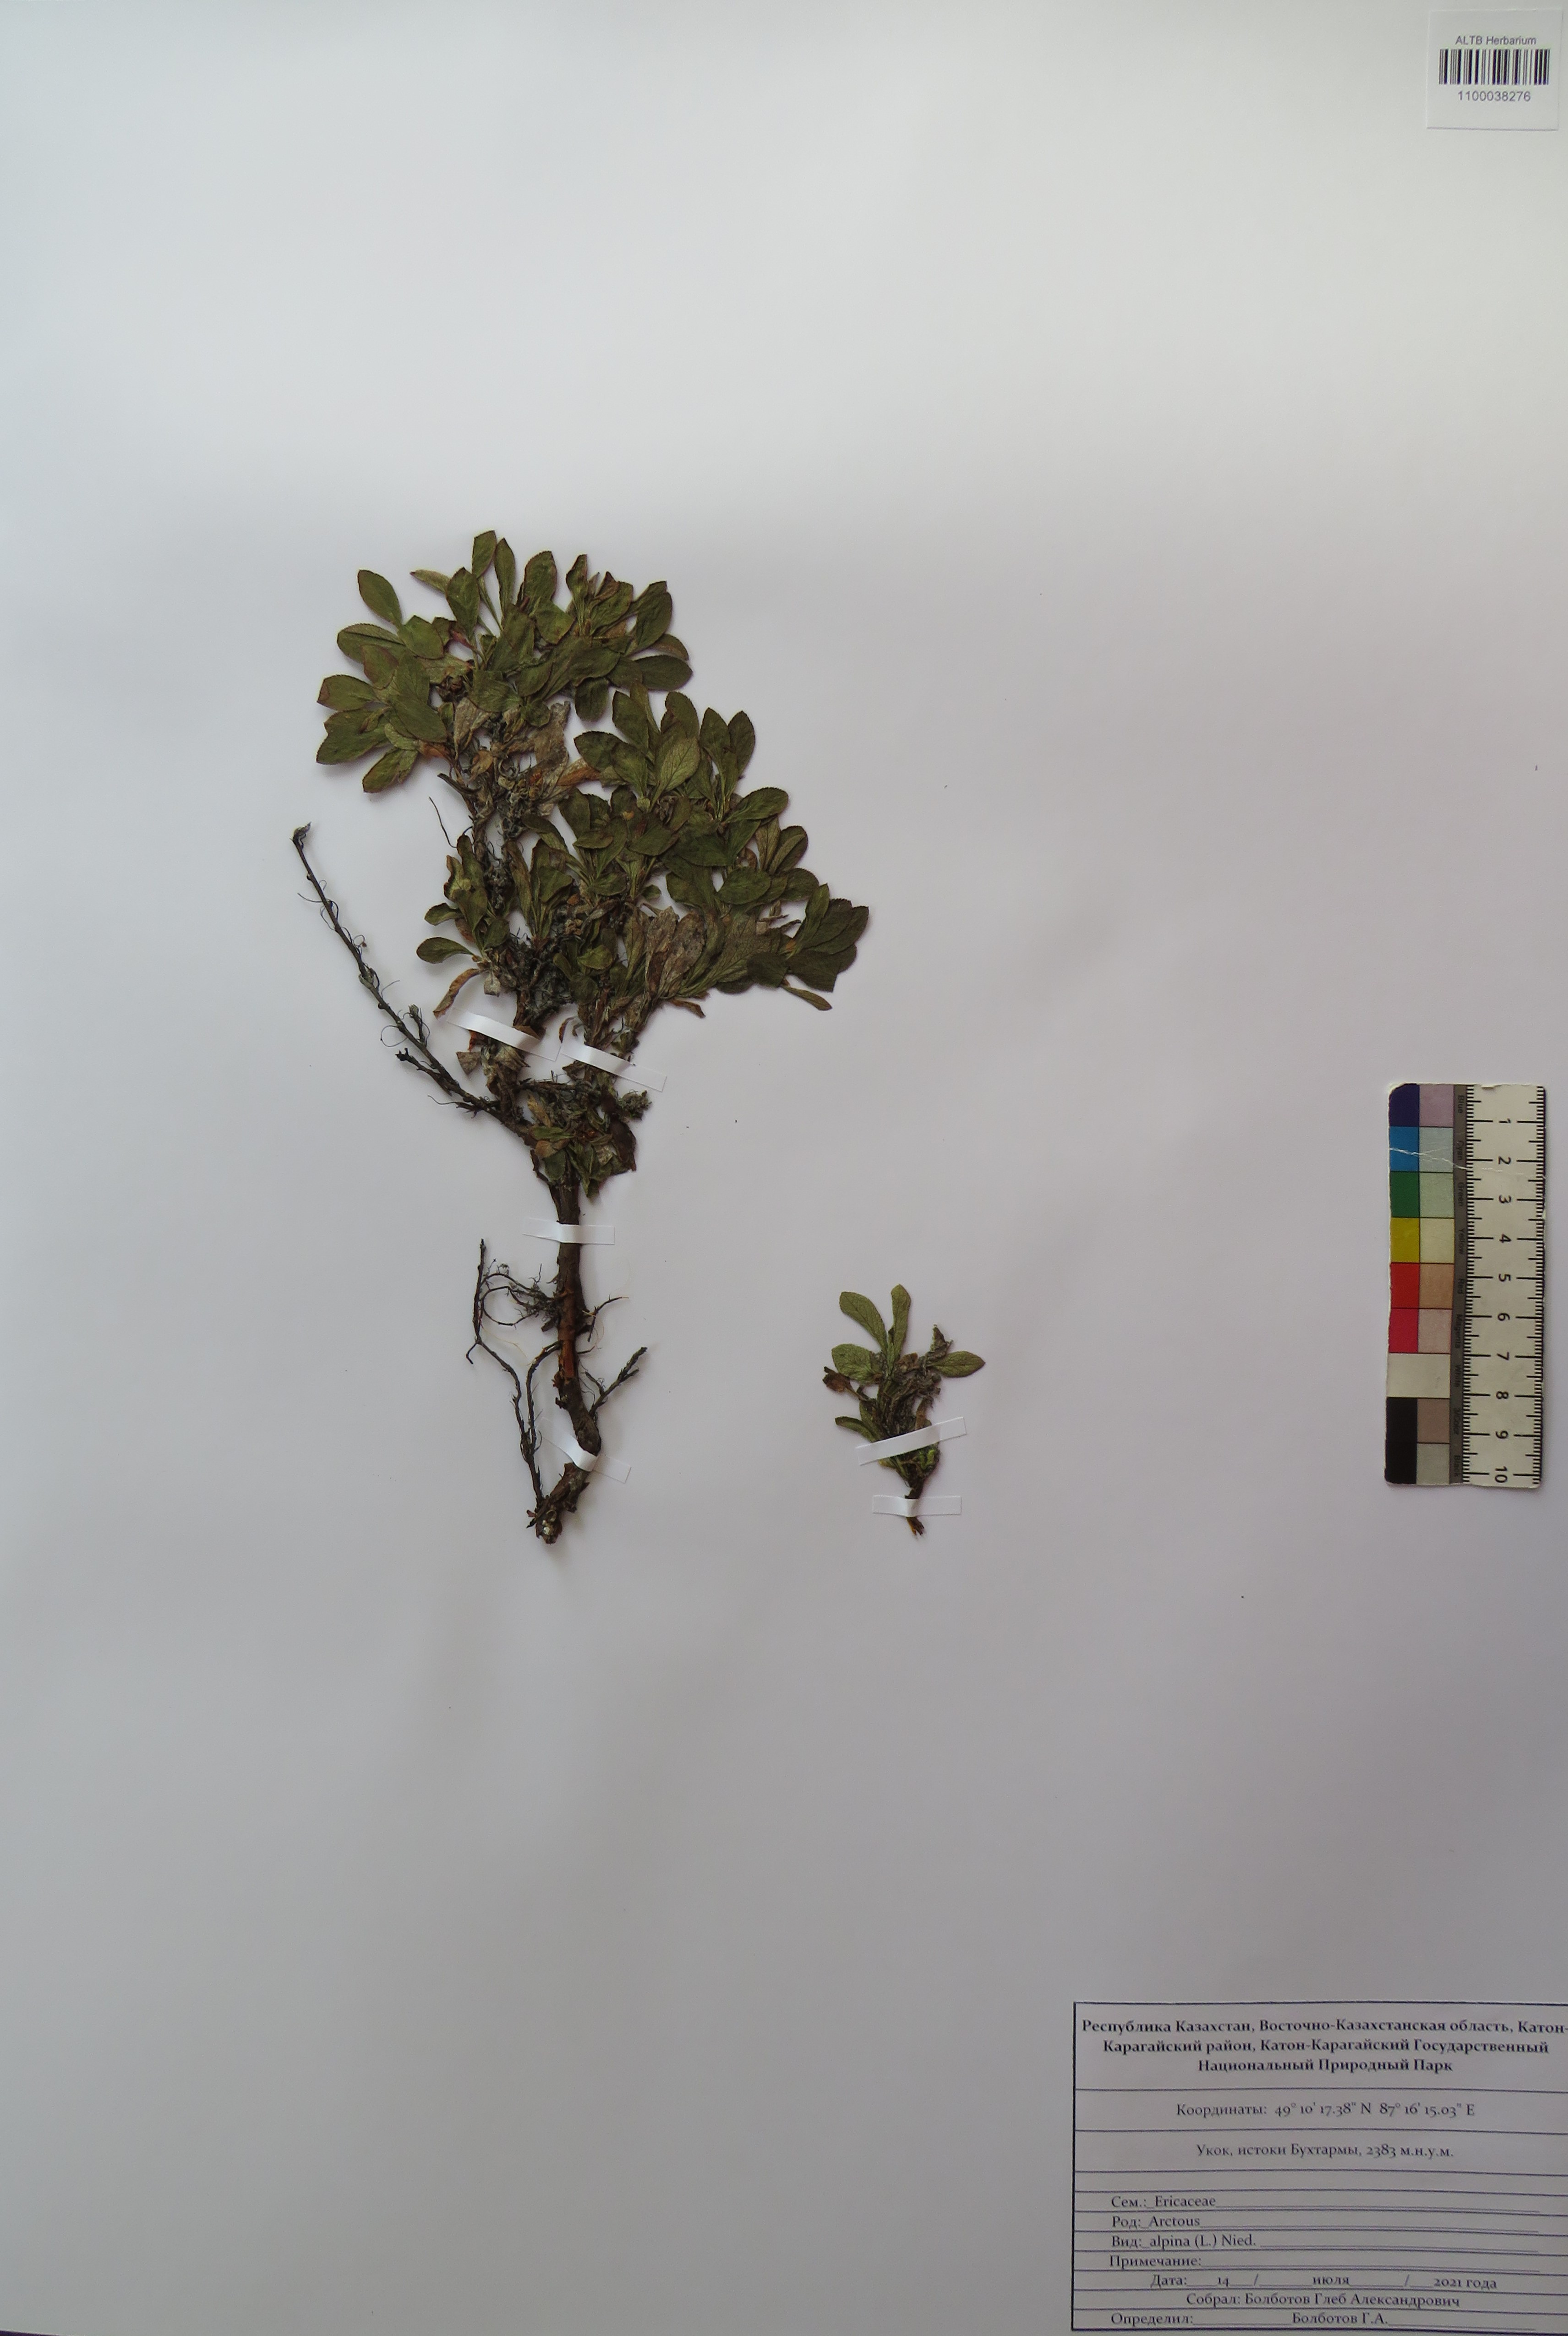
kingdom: Plantae
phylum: Tracheophyta
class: Magnoliopsida
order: Ericales
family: Ericaceae
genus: Arctostaphylos
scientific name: Arctostaphylos alpinus
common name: Alpine bearberry
